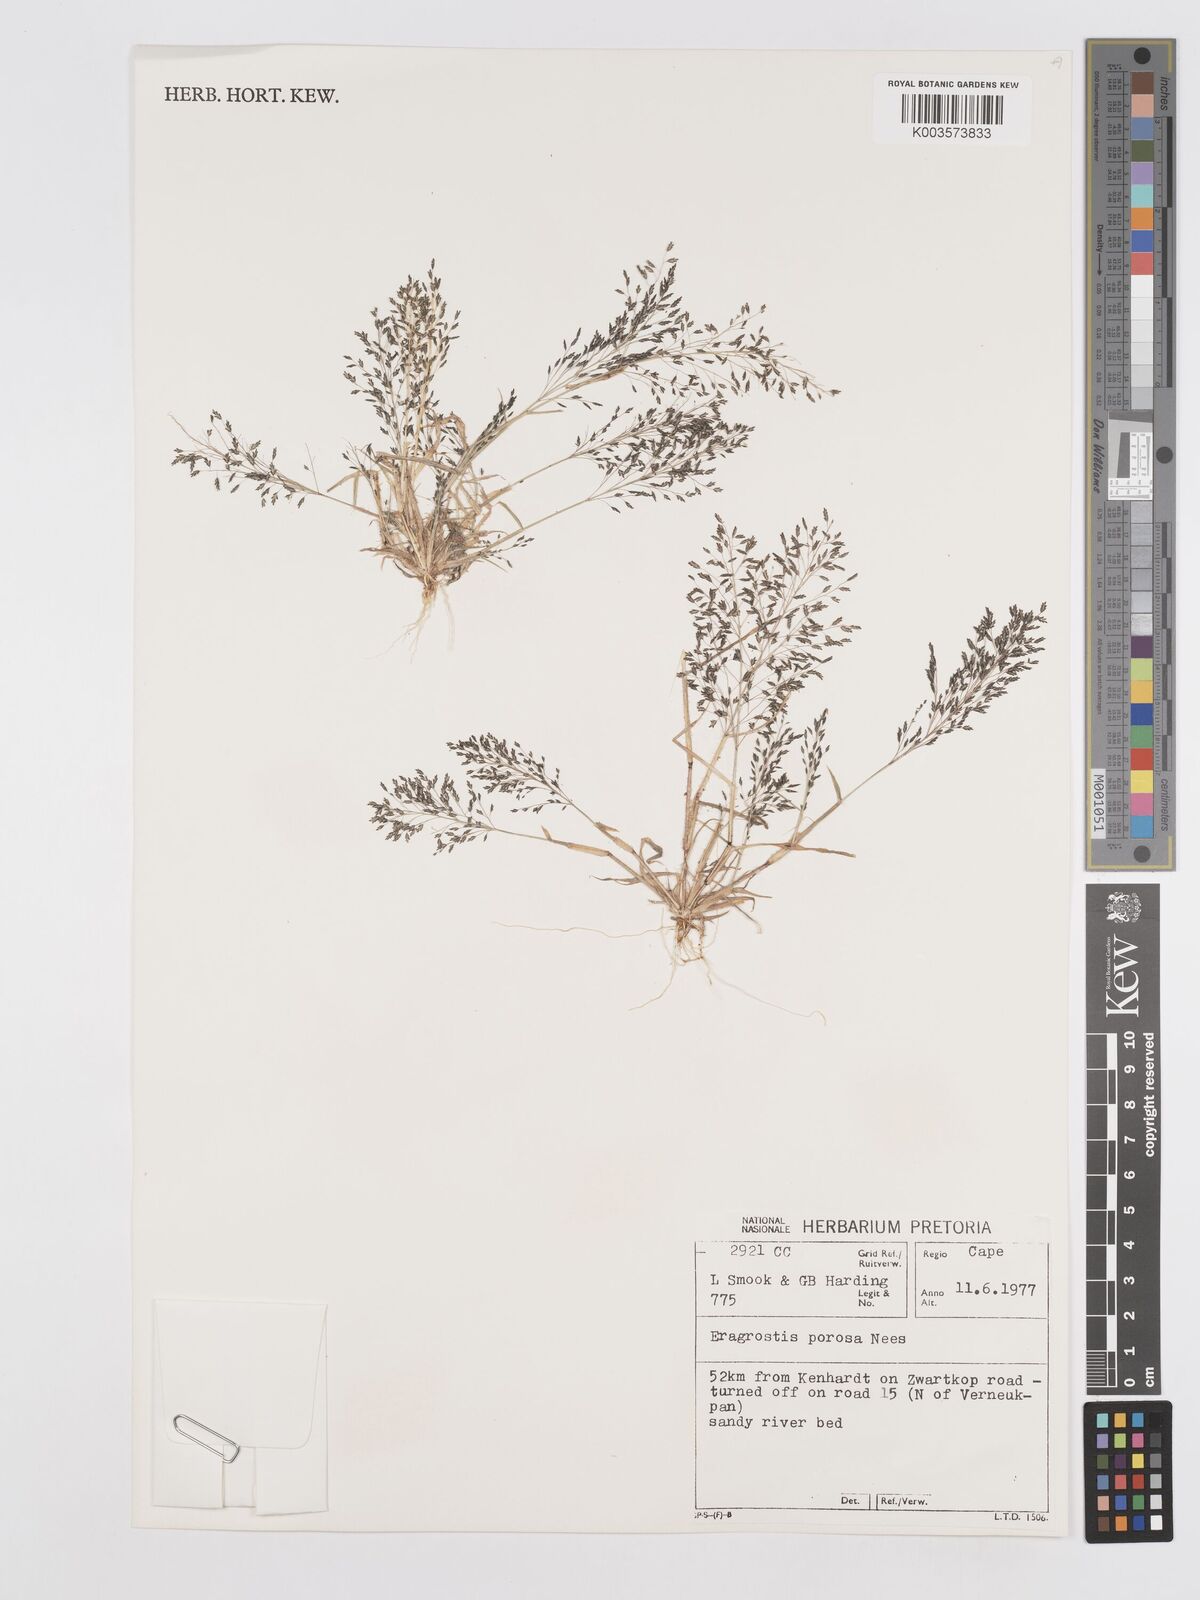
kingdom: Plantae
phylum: Tracheophyta
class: Liliopsida
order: Poales
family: Poaceae
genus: Eragrostis
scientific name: Eragrostis porosa
